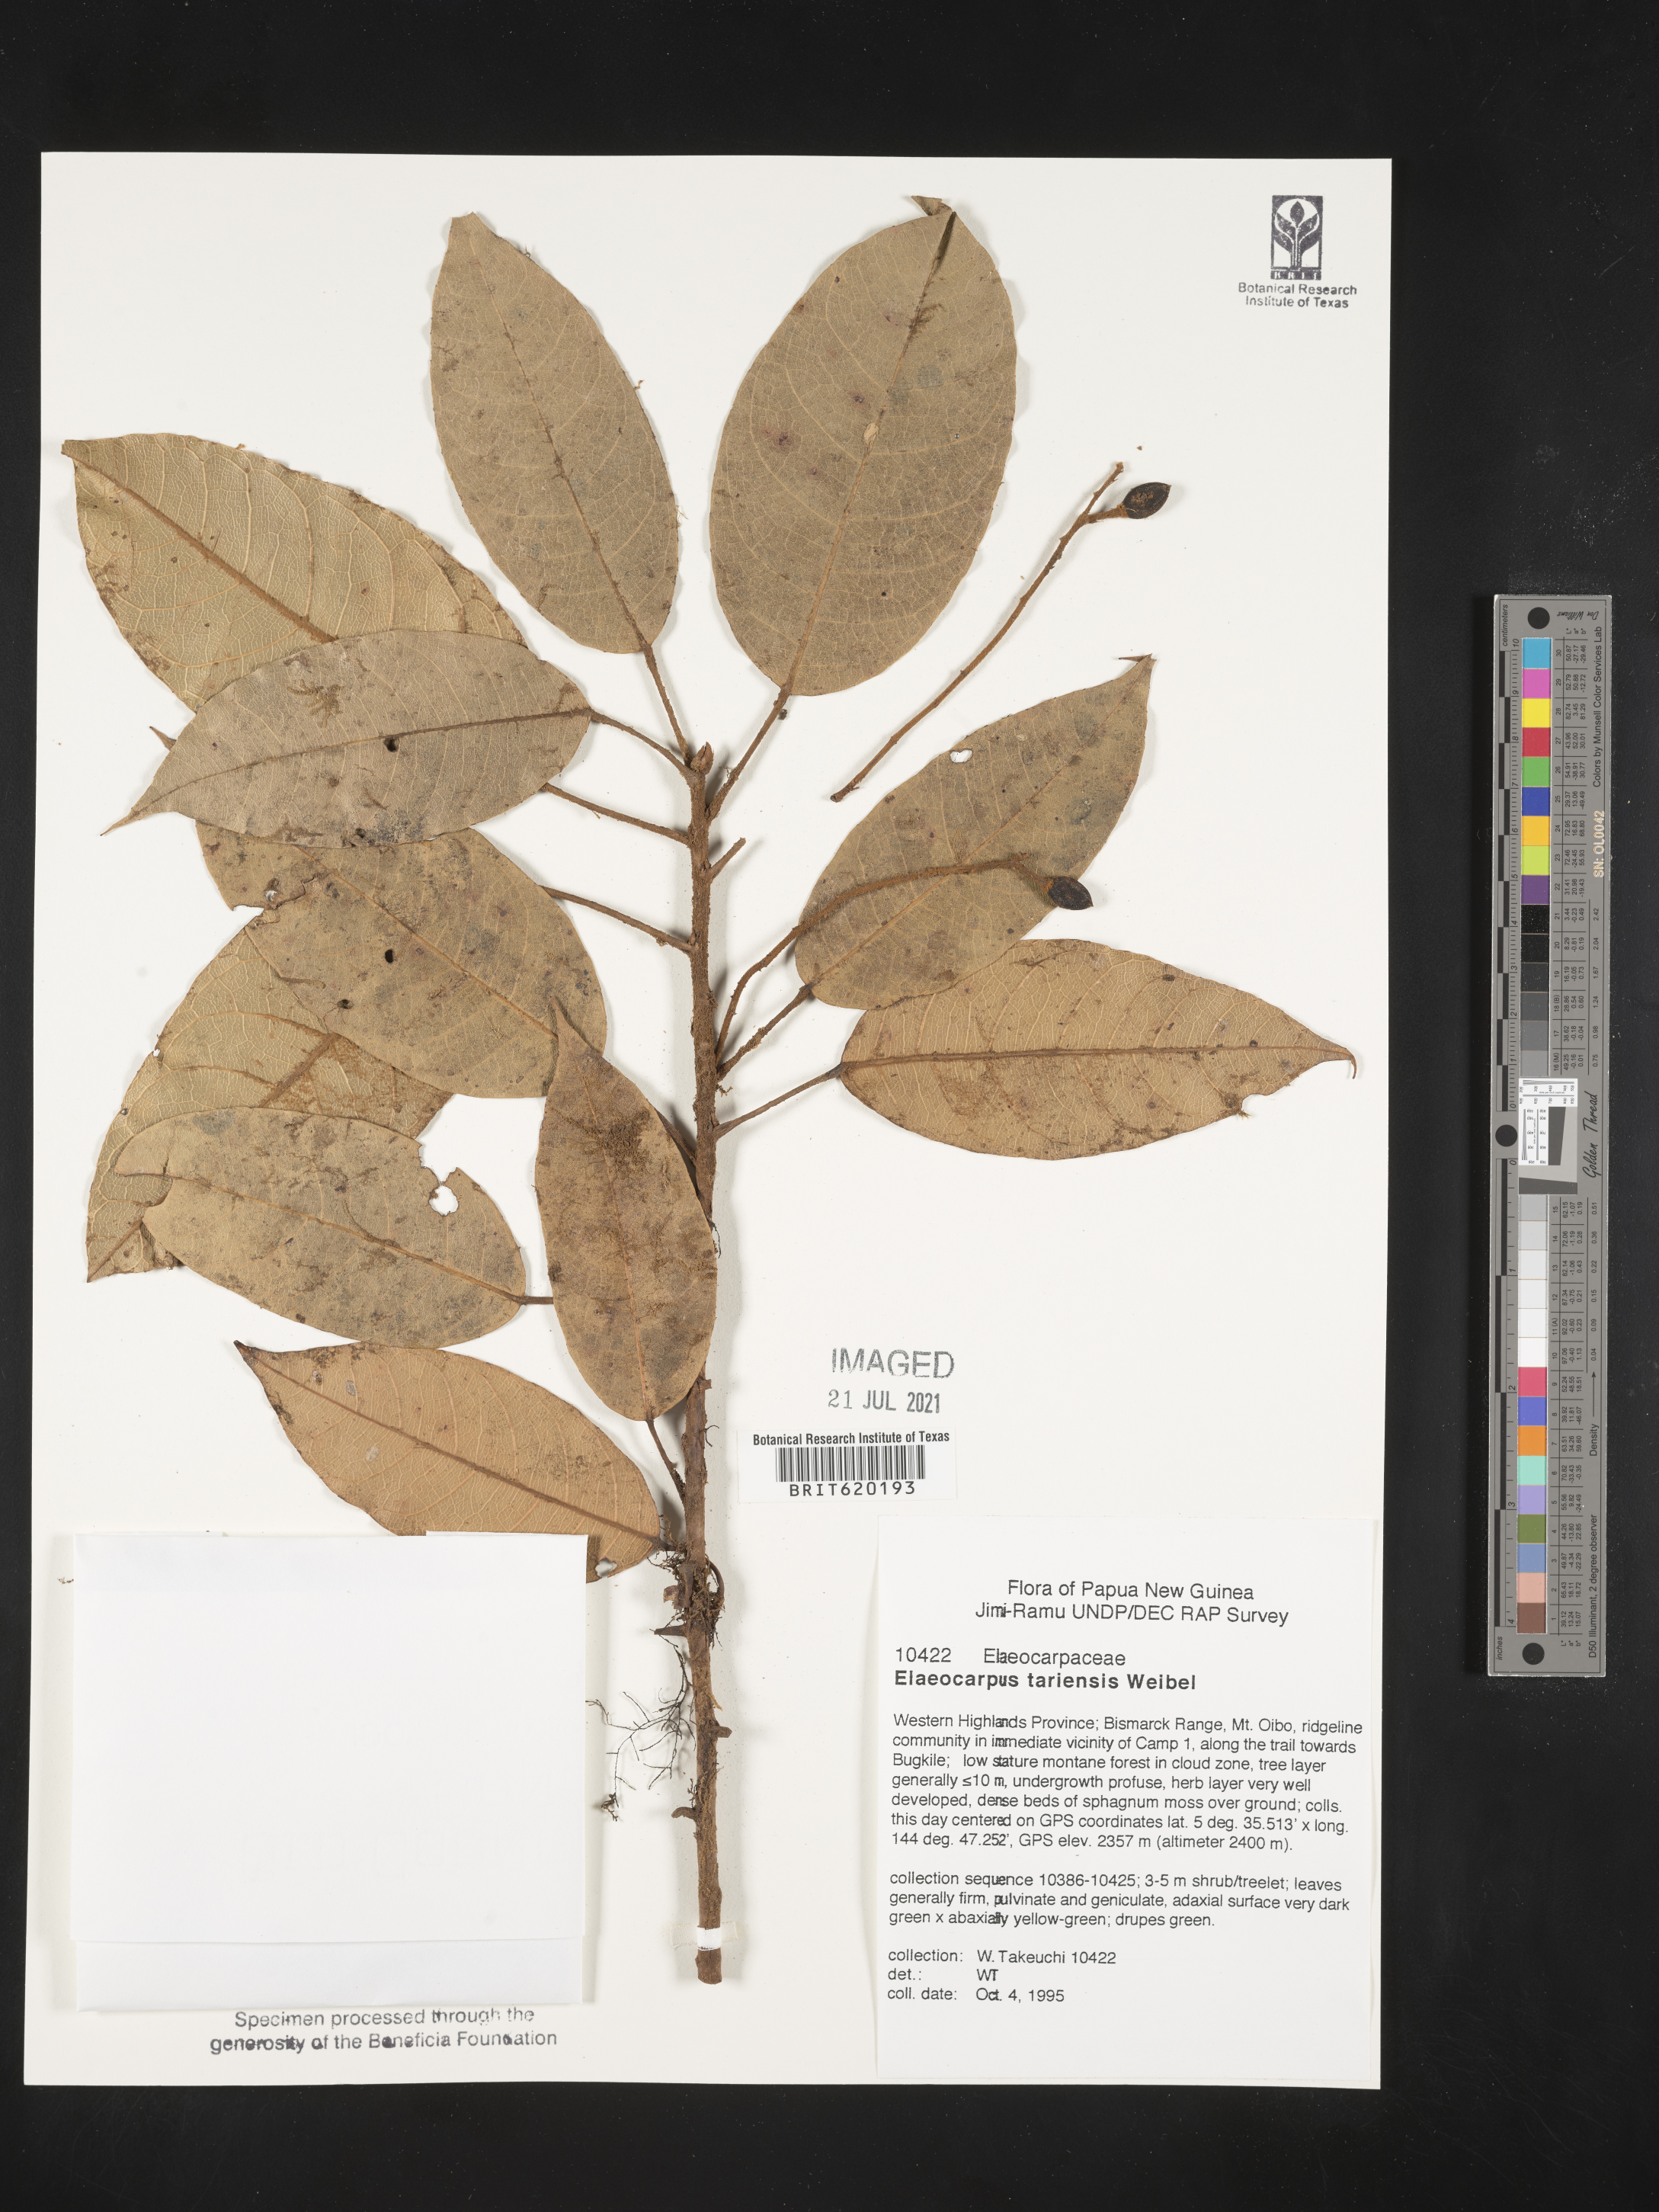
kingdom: Plantae
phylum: Tracheophyta
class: Magnoliopsida
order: Oxalidales
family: Elaeocarpaceae
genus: Elaeocarpus
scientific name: Elaeocarpus tariensis
